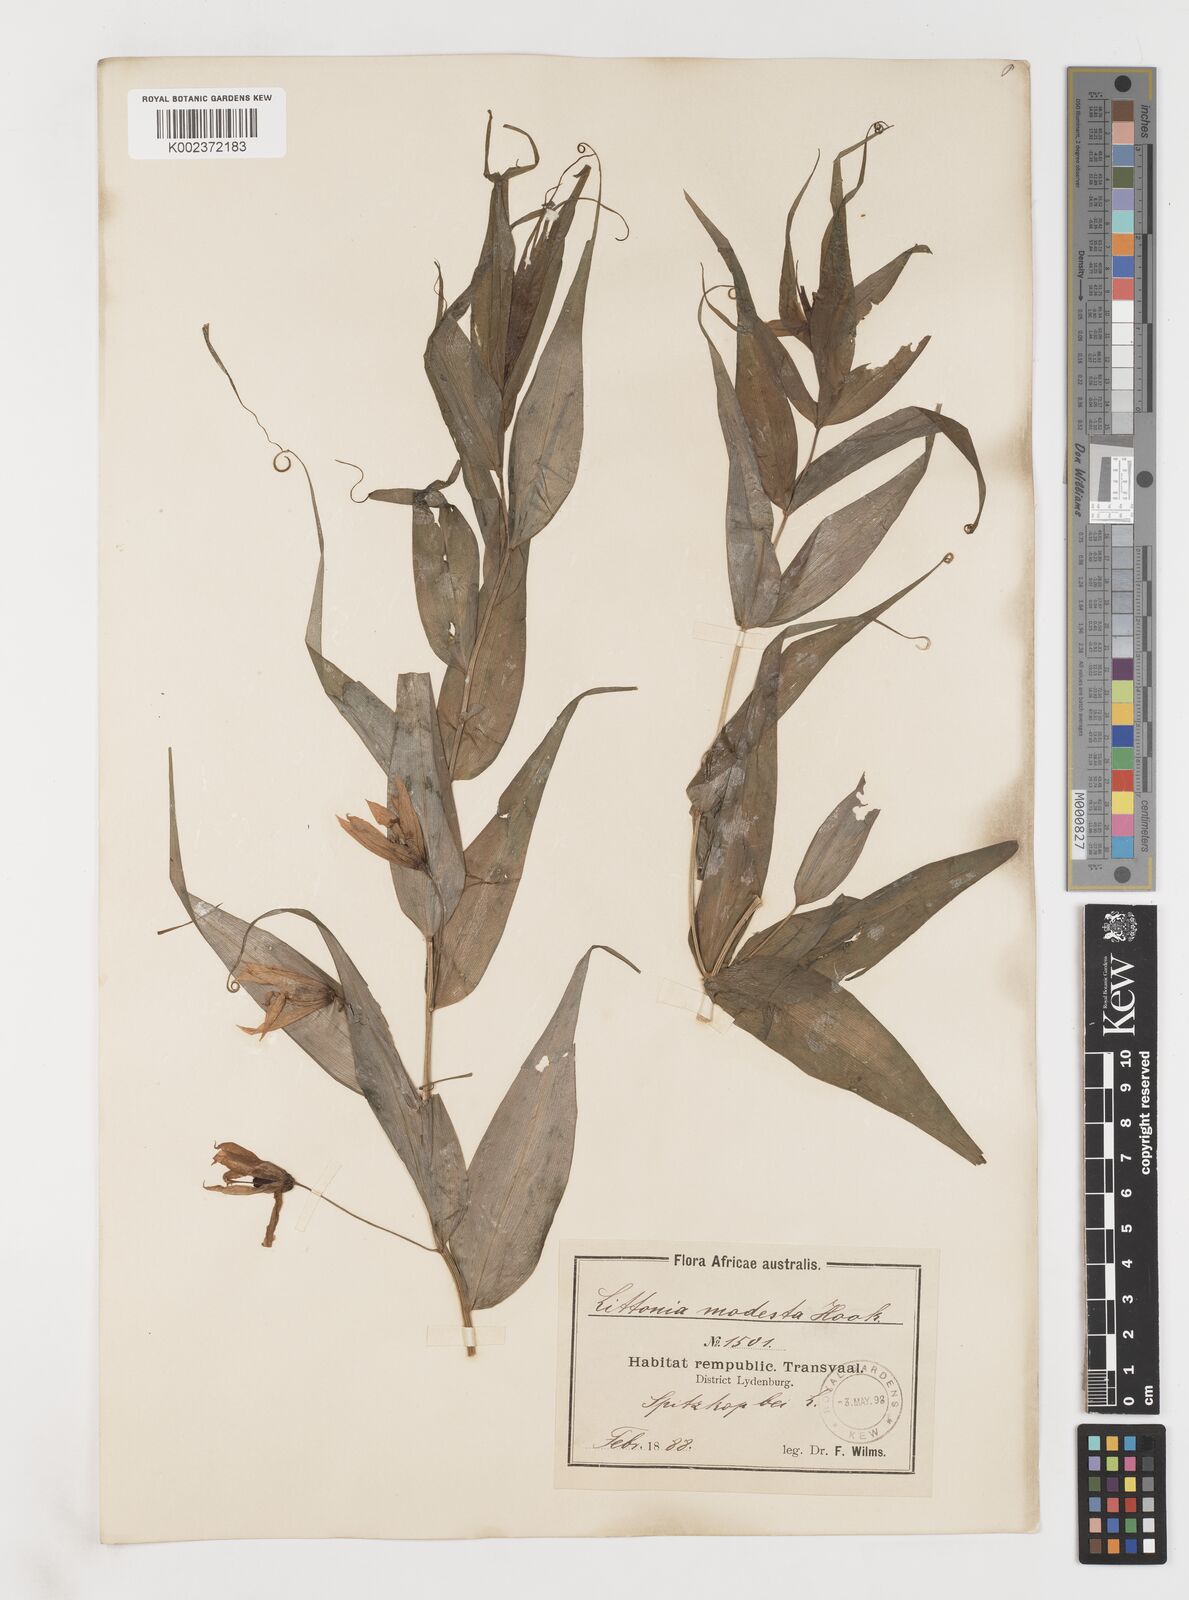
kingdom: Plantae
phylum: Tracheophyta
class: Liliopsida
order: Liliales
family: Colchicaceae
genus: Gloriosa
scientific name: Gloriosa modesta
